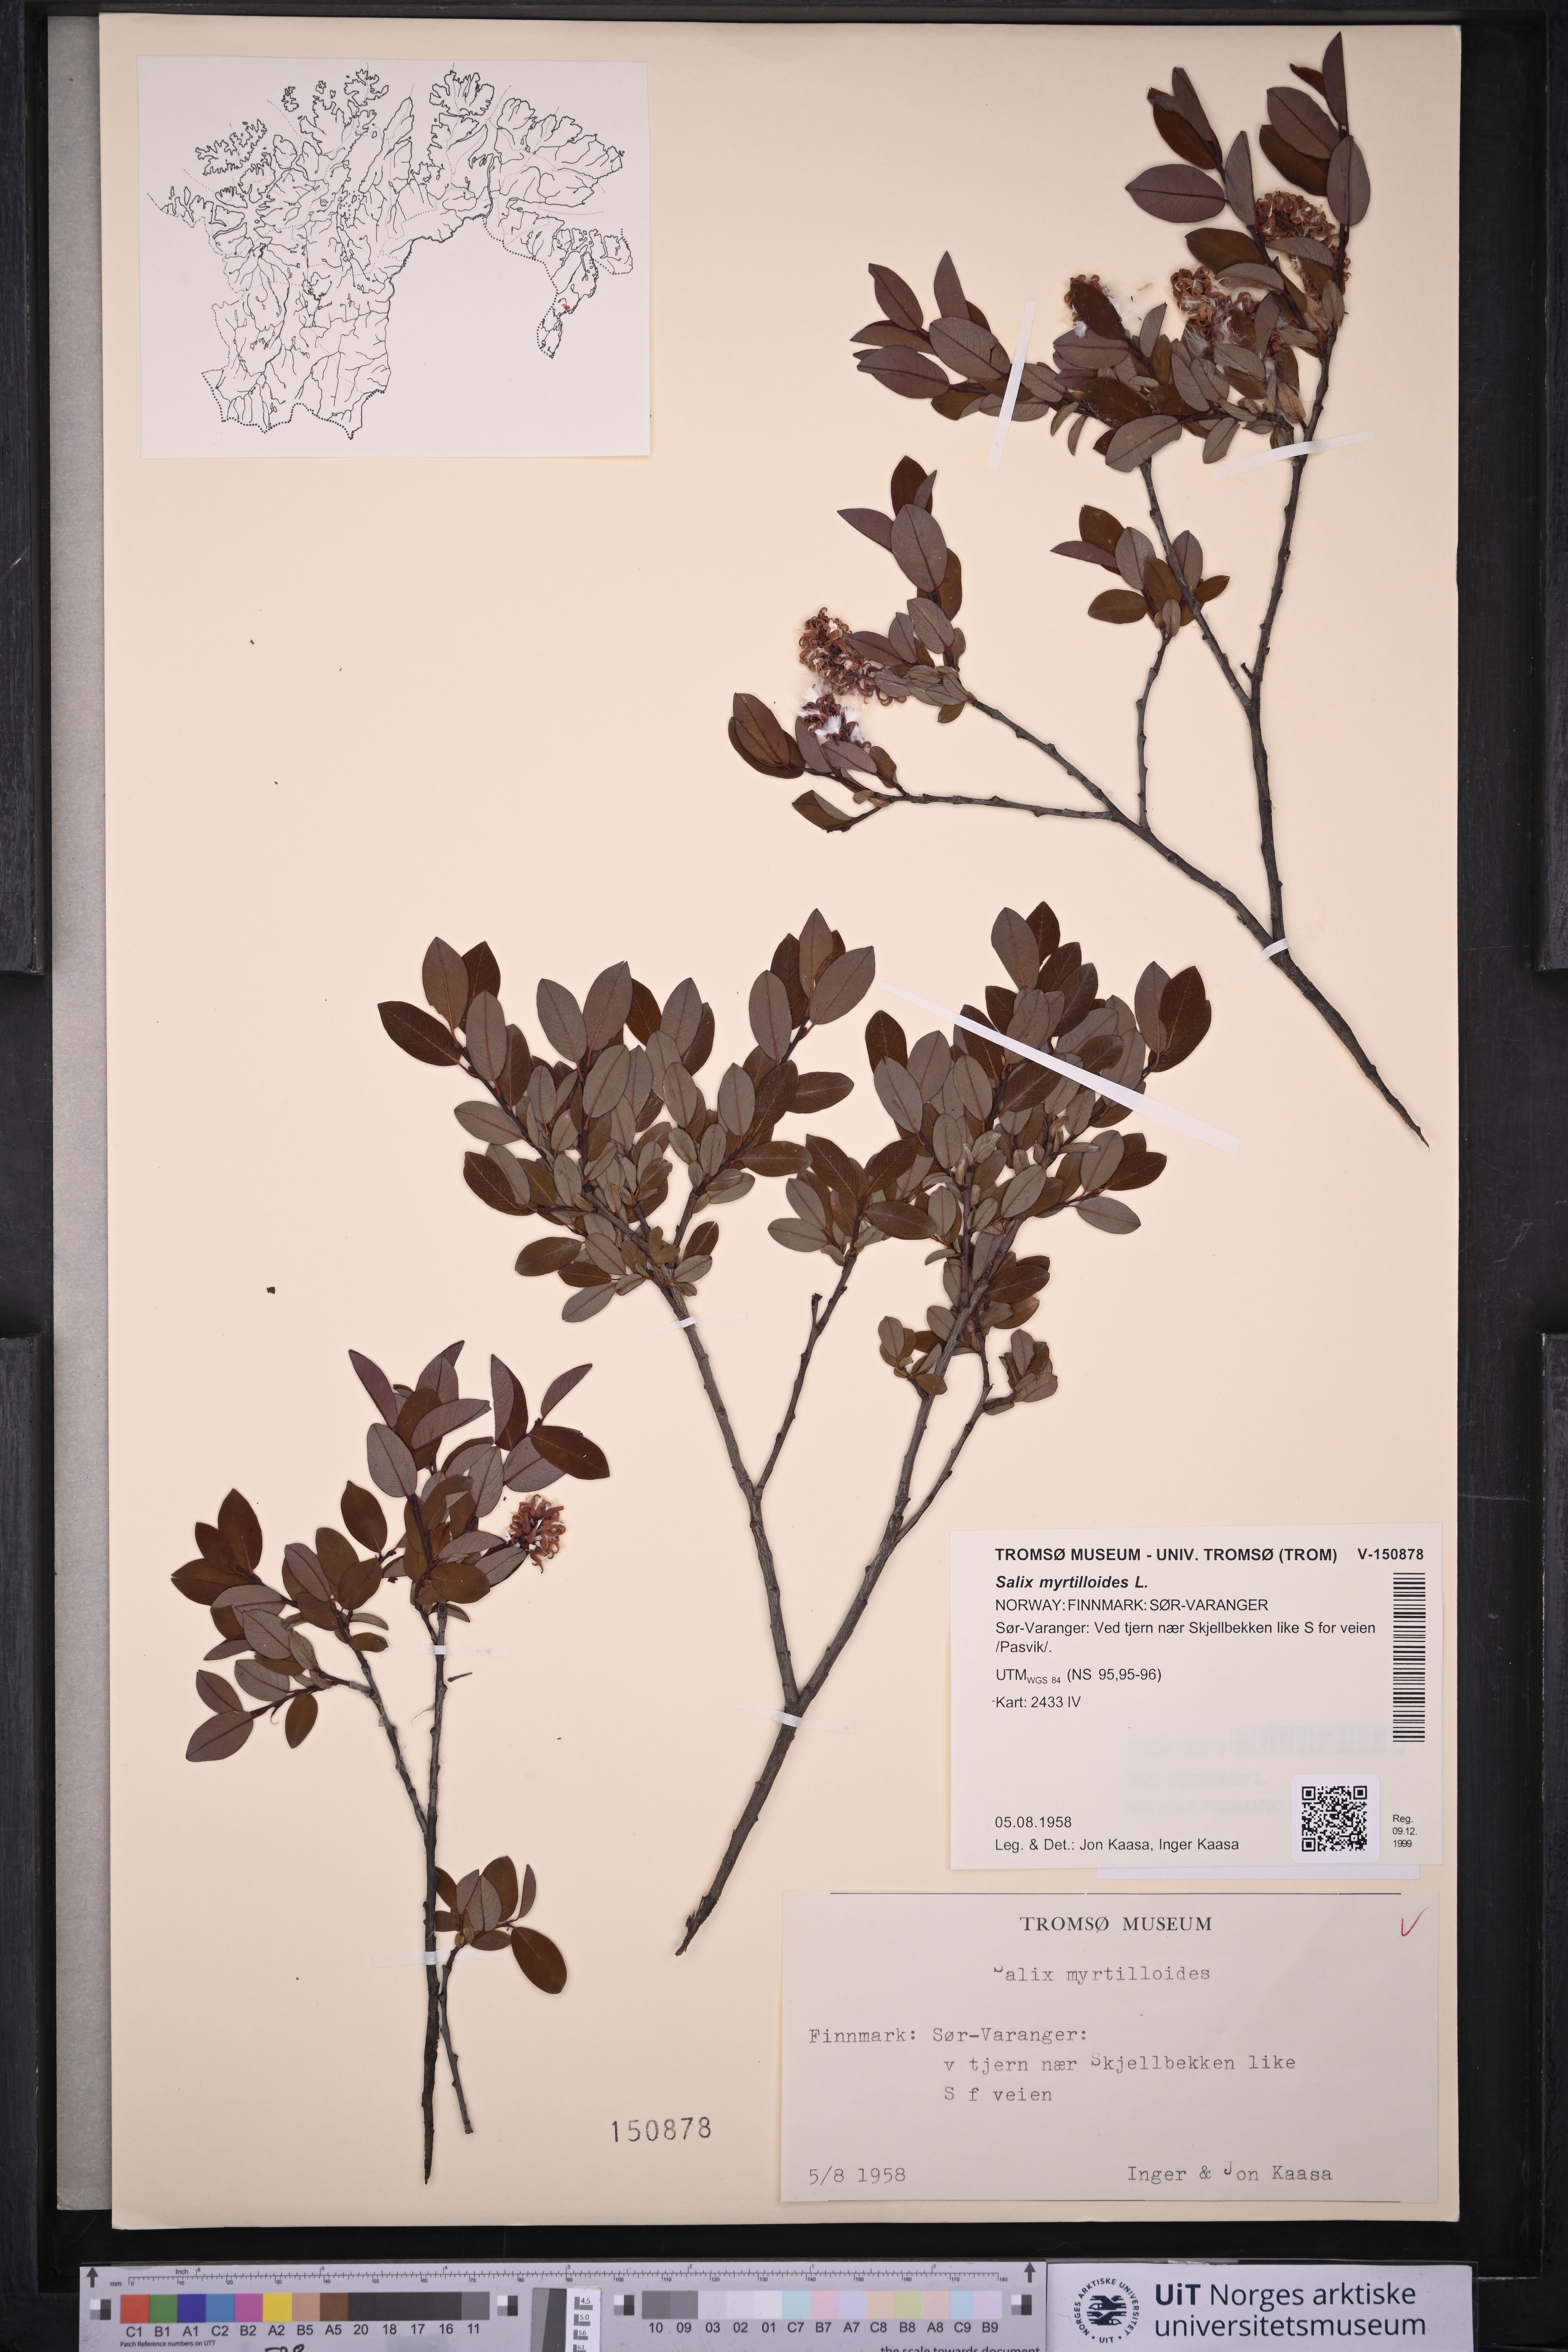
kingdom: Plantae
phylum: Tracheophyta
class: Magnoliopsida
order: Malpighiales
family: Salicaceae
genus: Salix
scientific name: Salix myrtilloides
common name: Myrtle-leaved willow
